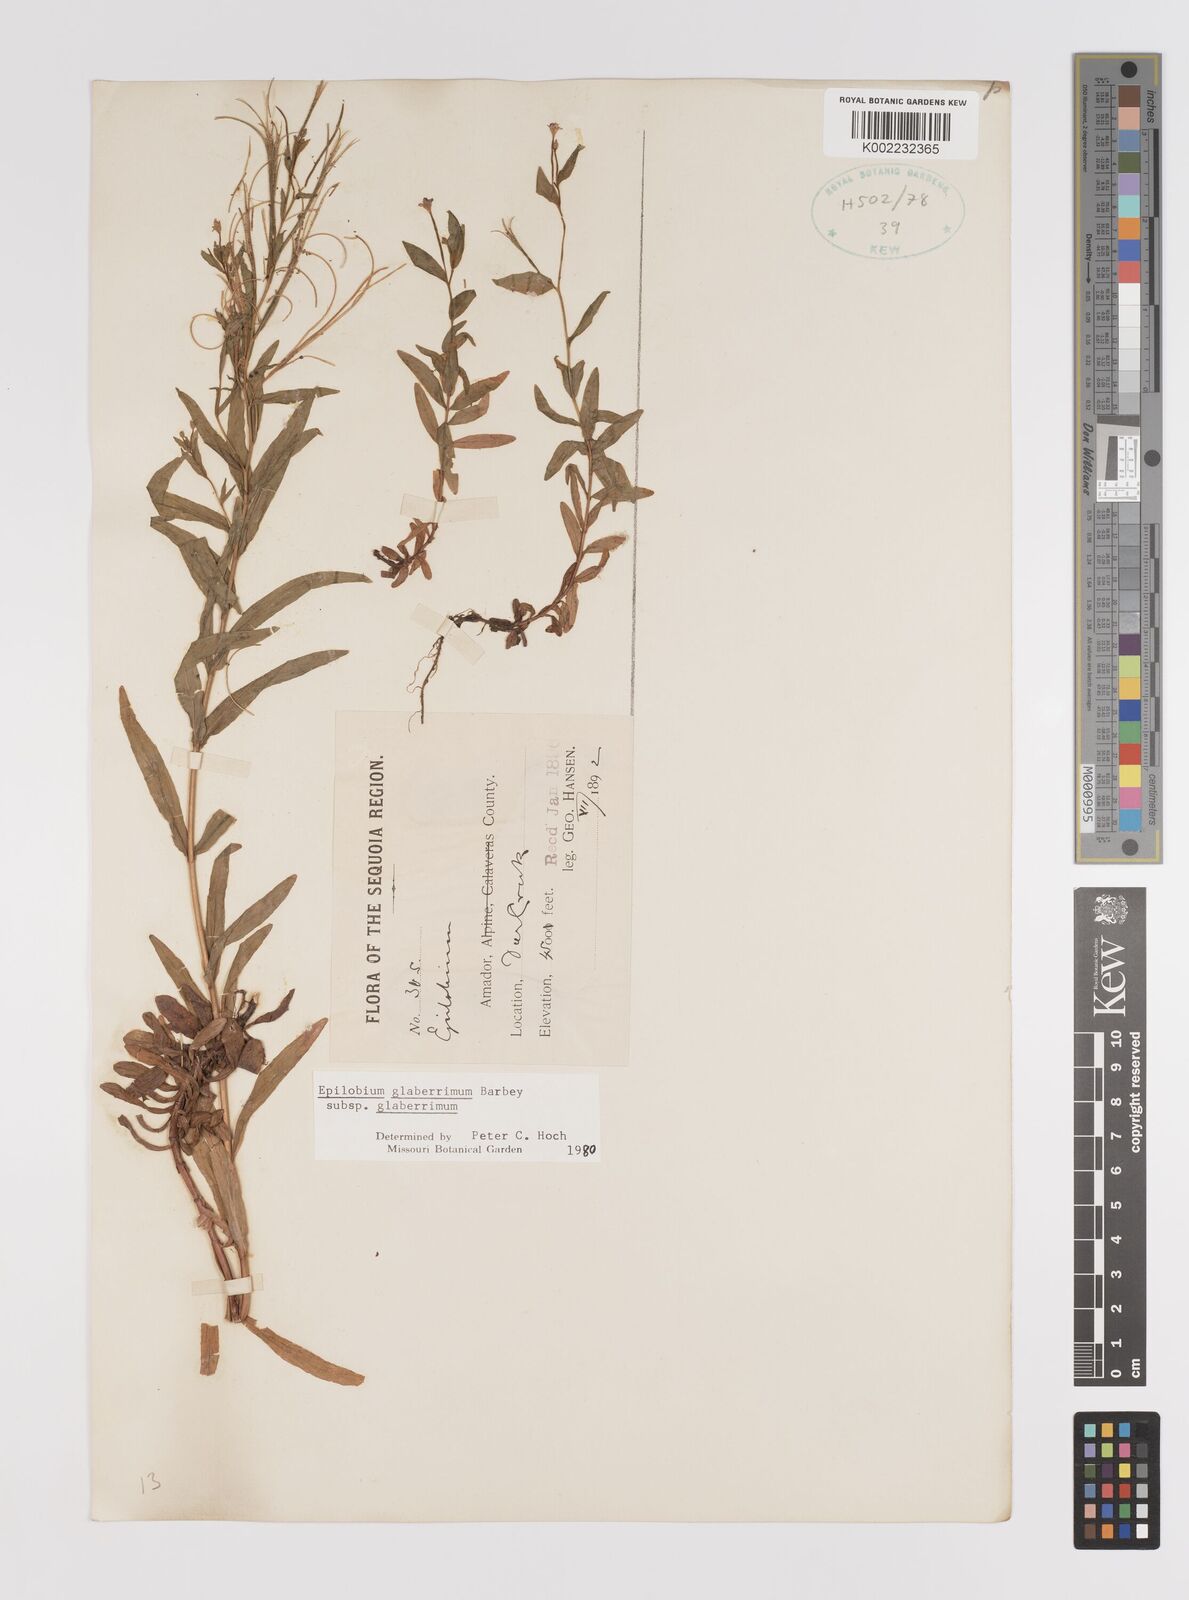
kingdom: Plantae
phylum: Tracheophyta
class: Magnoliopsida
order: Myrtales
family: Onagraceae
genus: Epilobium
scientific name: Epilobium glaberrimum
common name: Glaucous willowherb
